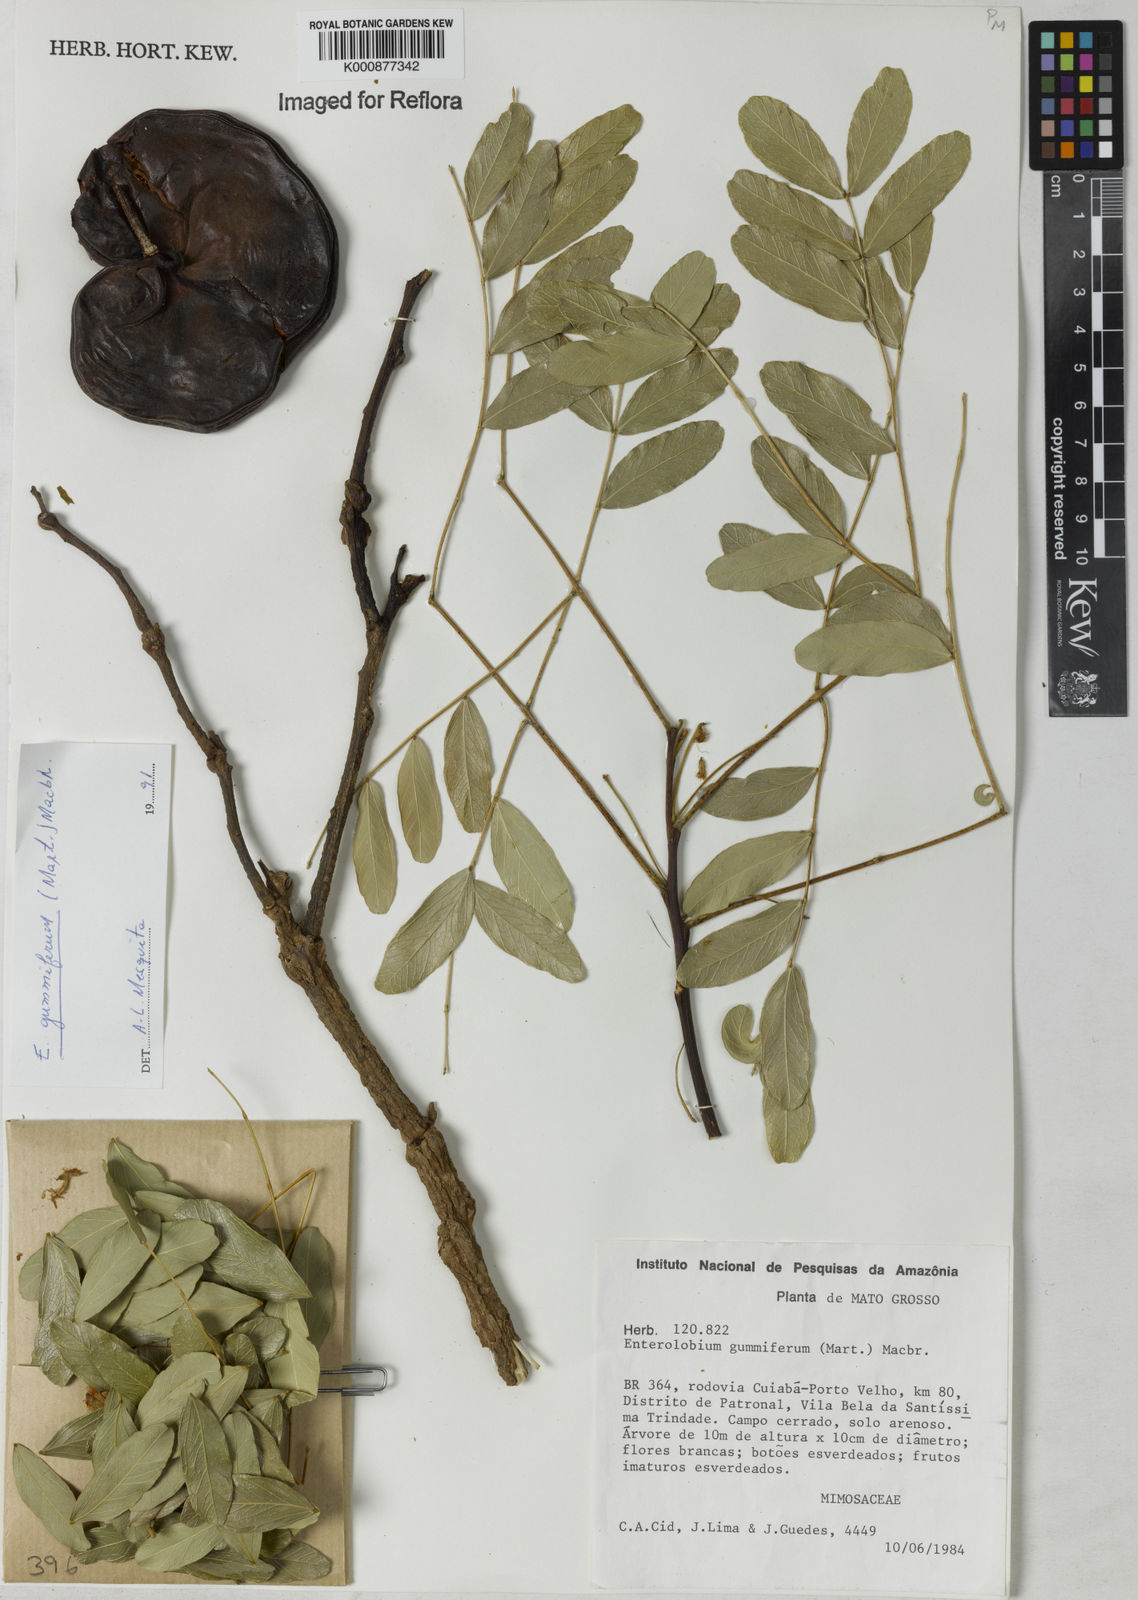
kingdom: Plantae
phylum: Tracheophyta
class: Magnoliopsida
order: Fabales
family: Fabaceae
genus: Enterolobium
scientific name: Enterolobium gummiferum
